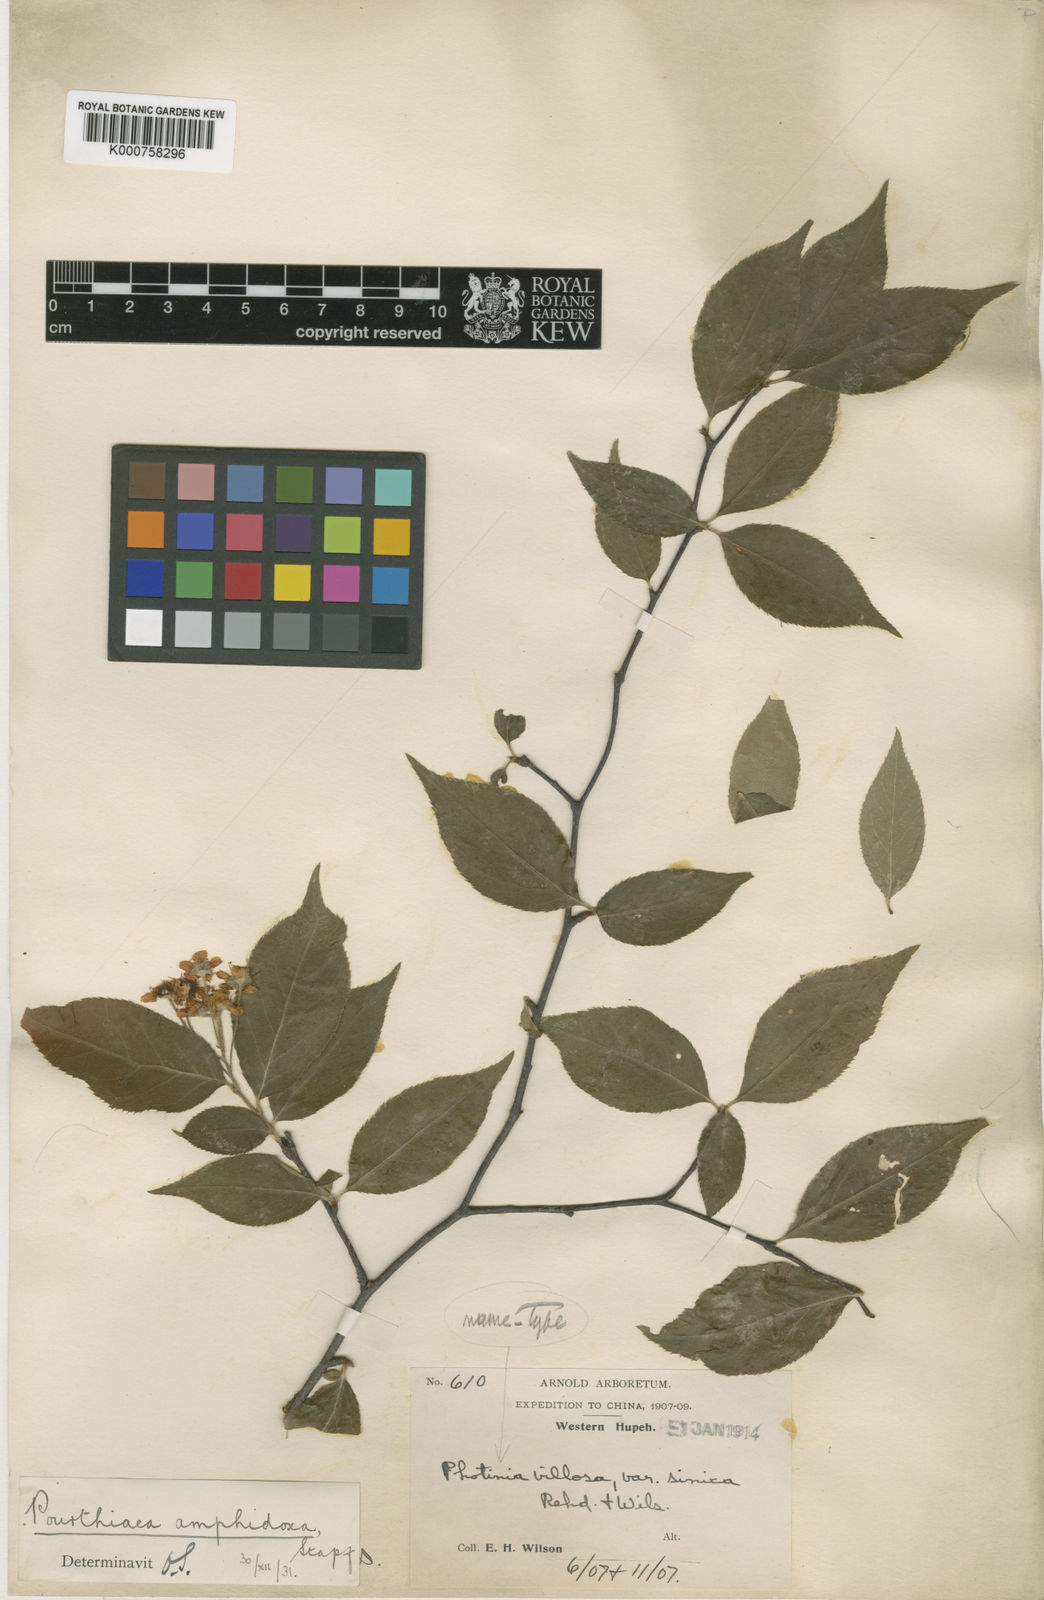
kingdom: Plantae
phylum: Tracheophyta
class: Magnoliopsida
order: Rosales
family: Rosaceae
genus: Pourthiaea
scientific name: Pourthiaea villosa
